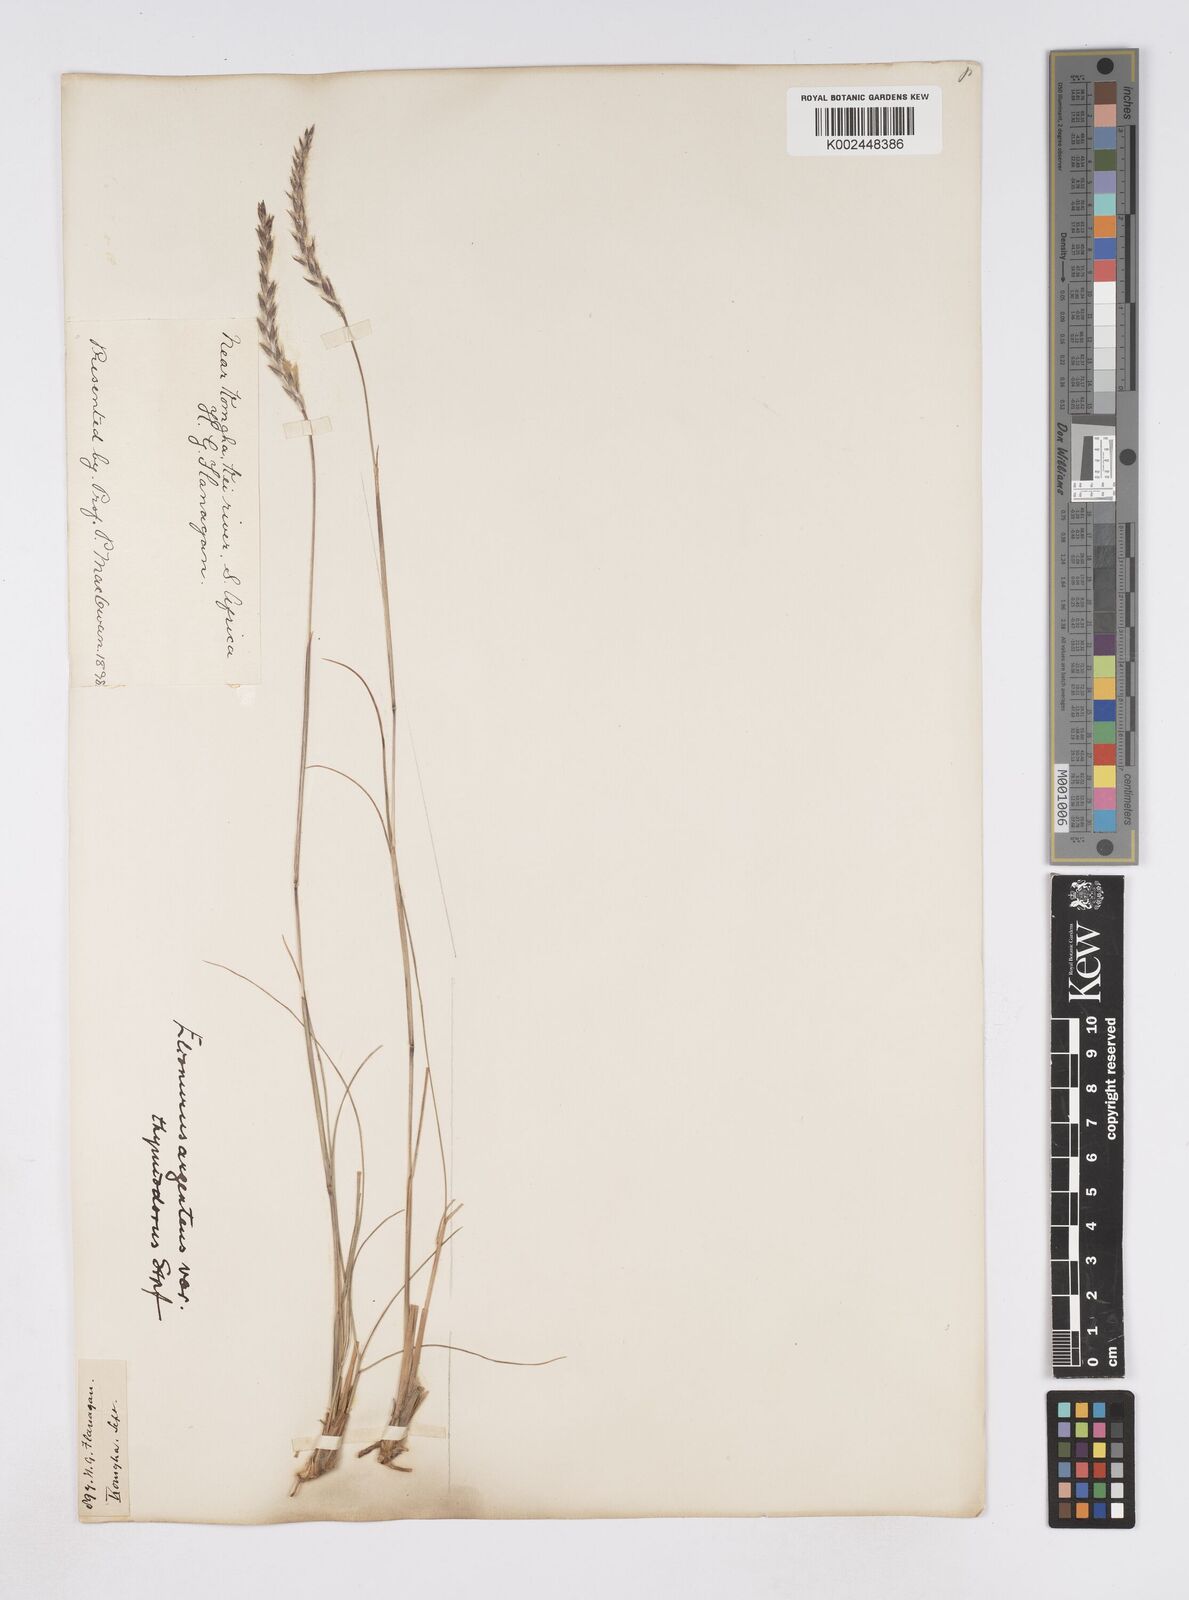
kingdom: Plantae
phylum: Tracheophyta
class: Liliopsida
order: Poales
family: Poaceae
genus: Elionurus
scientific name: Elionurus muticus
